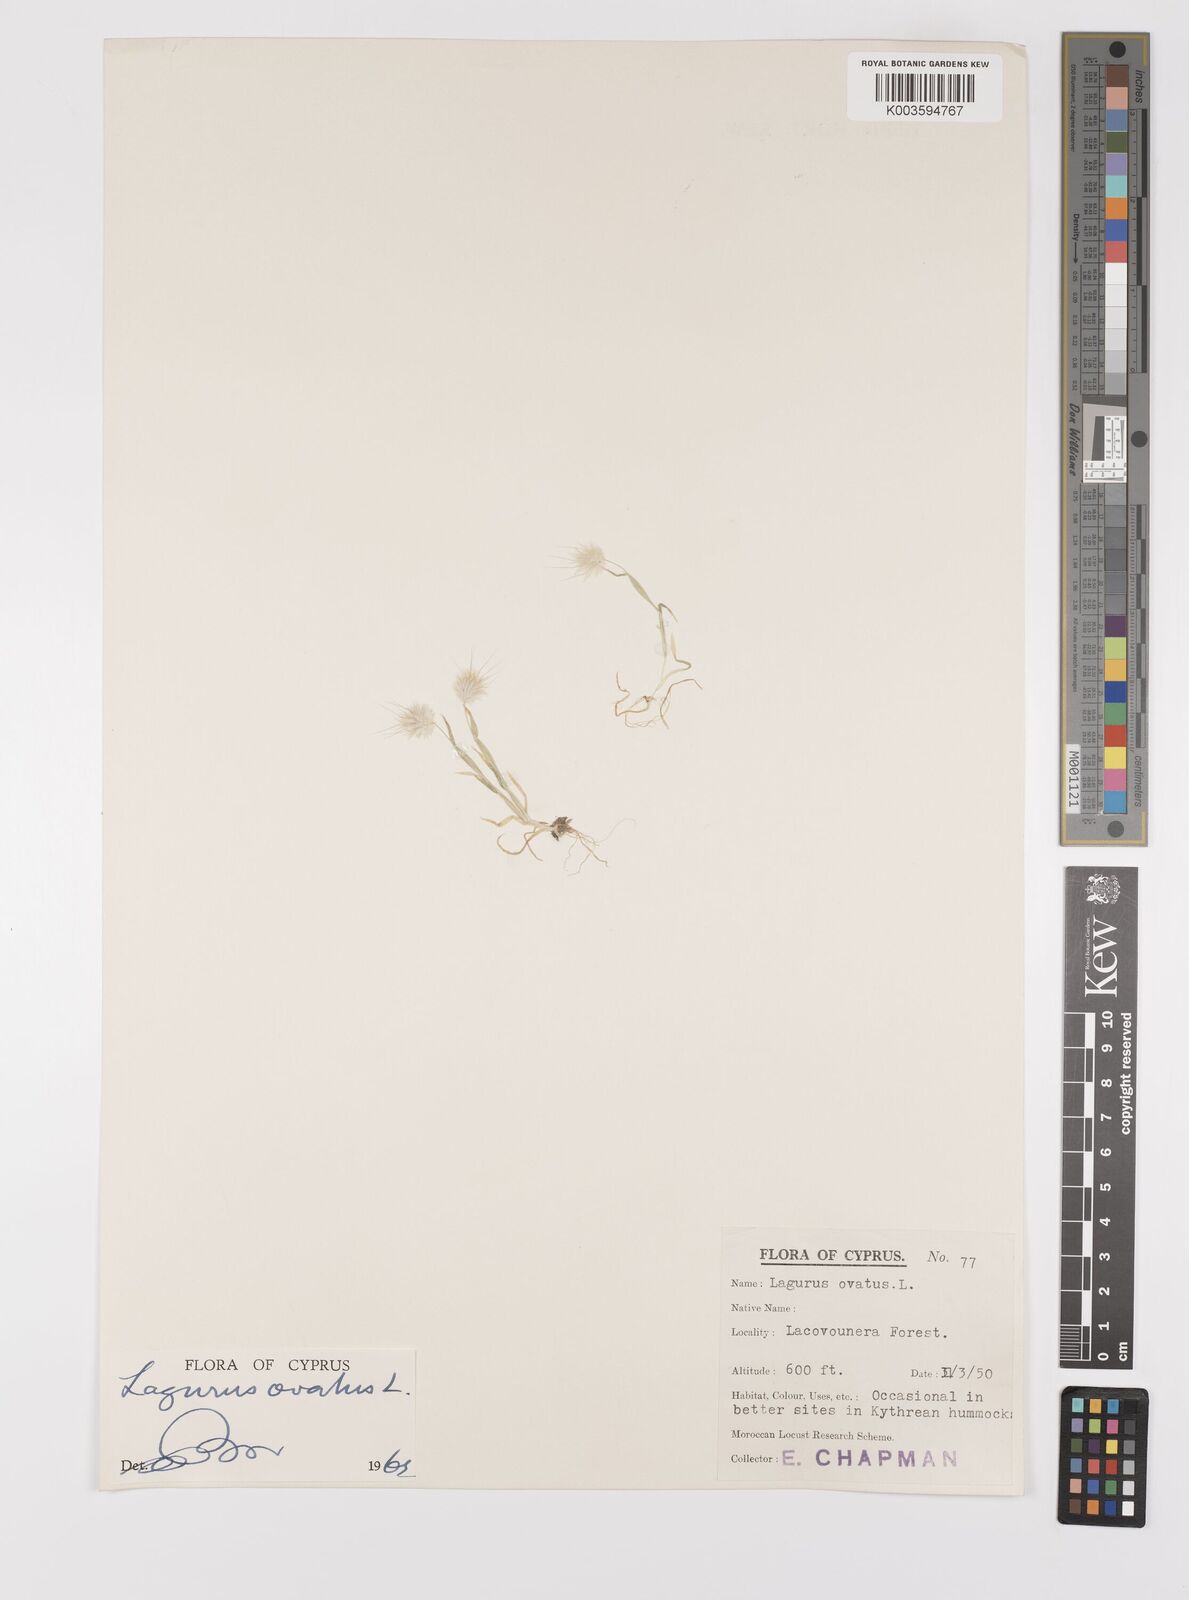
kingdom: Plantae
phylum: Tracheophyta
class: Liliopsida
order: Poales
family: Poaceae
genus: Lagurus
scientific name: Lagurus ovatus
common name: Hare's-tail
